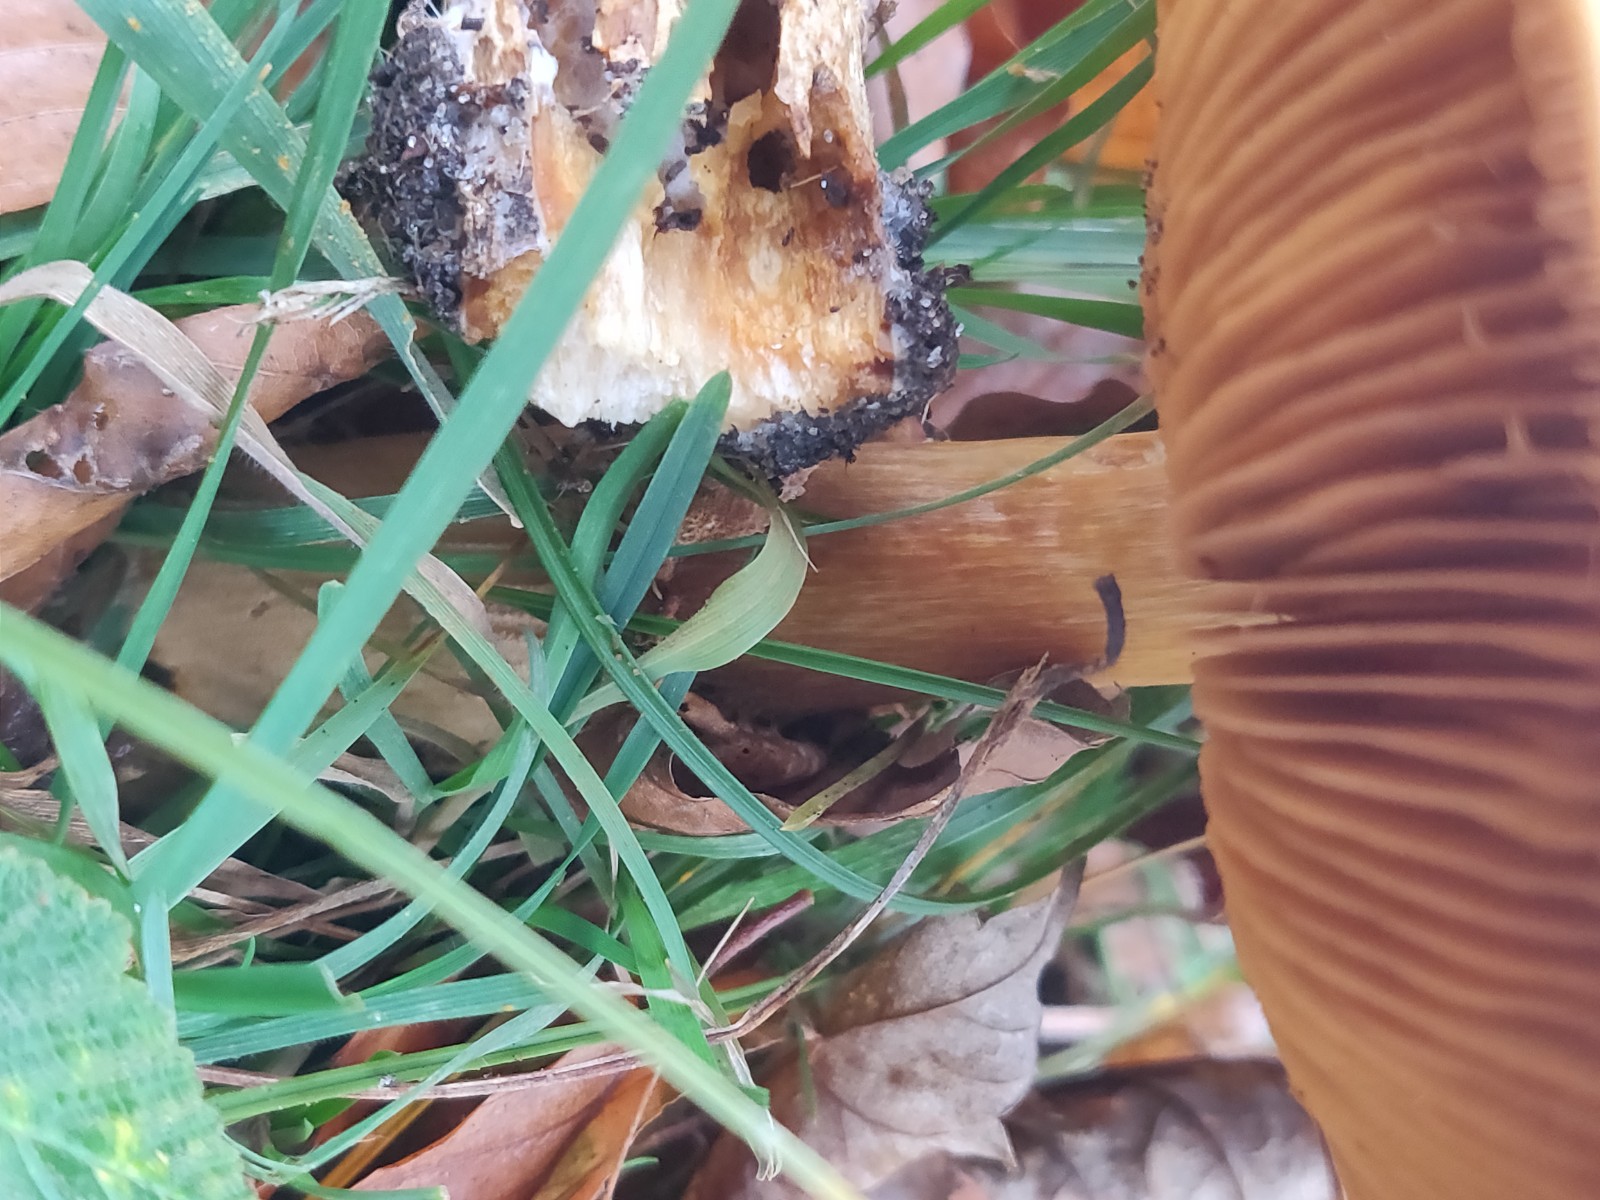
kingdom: Fungi
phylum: Basidiomycota
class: Agaricomycetes
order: Agaricales
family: Tricholomataceae
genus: Phaeolepiota
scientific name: Phaeolepiota aurea
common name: gyldenhat
